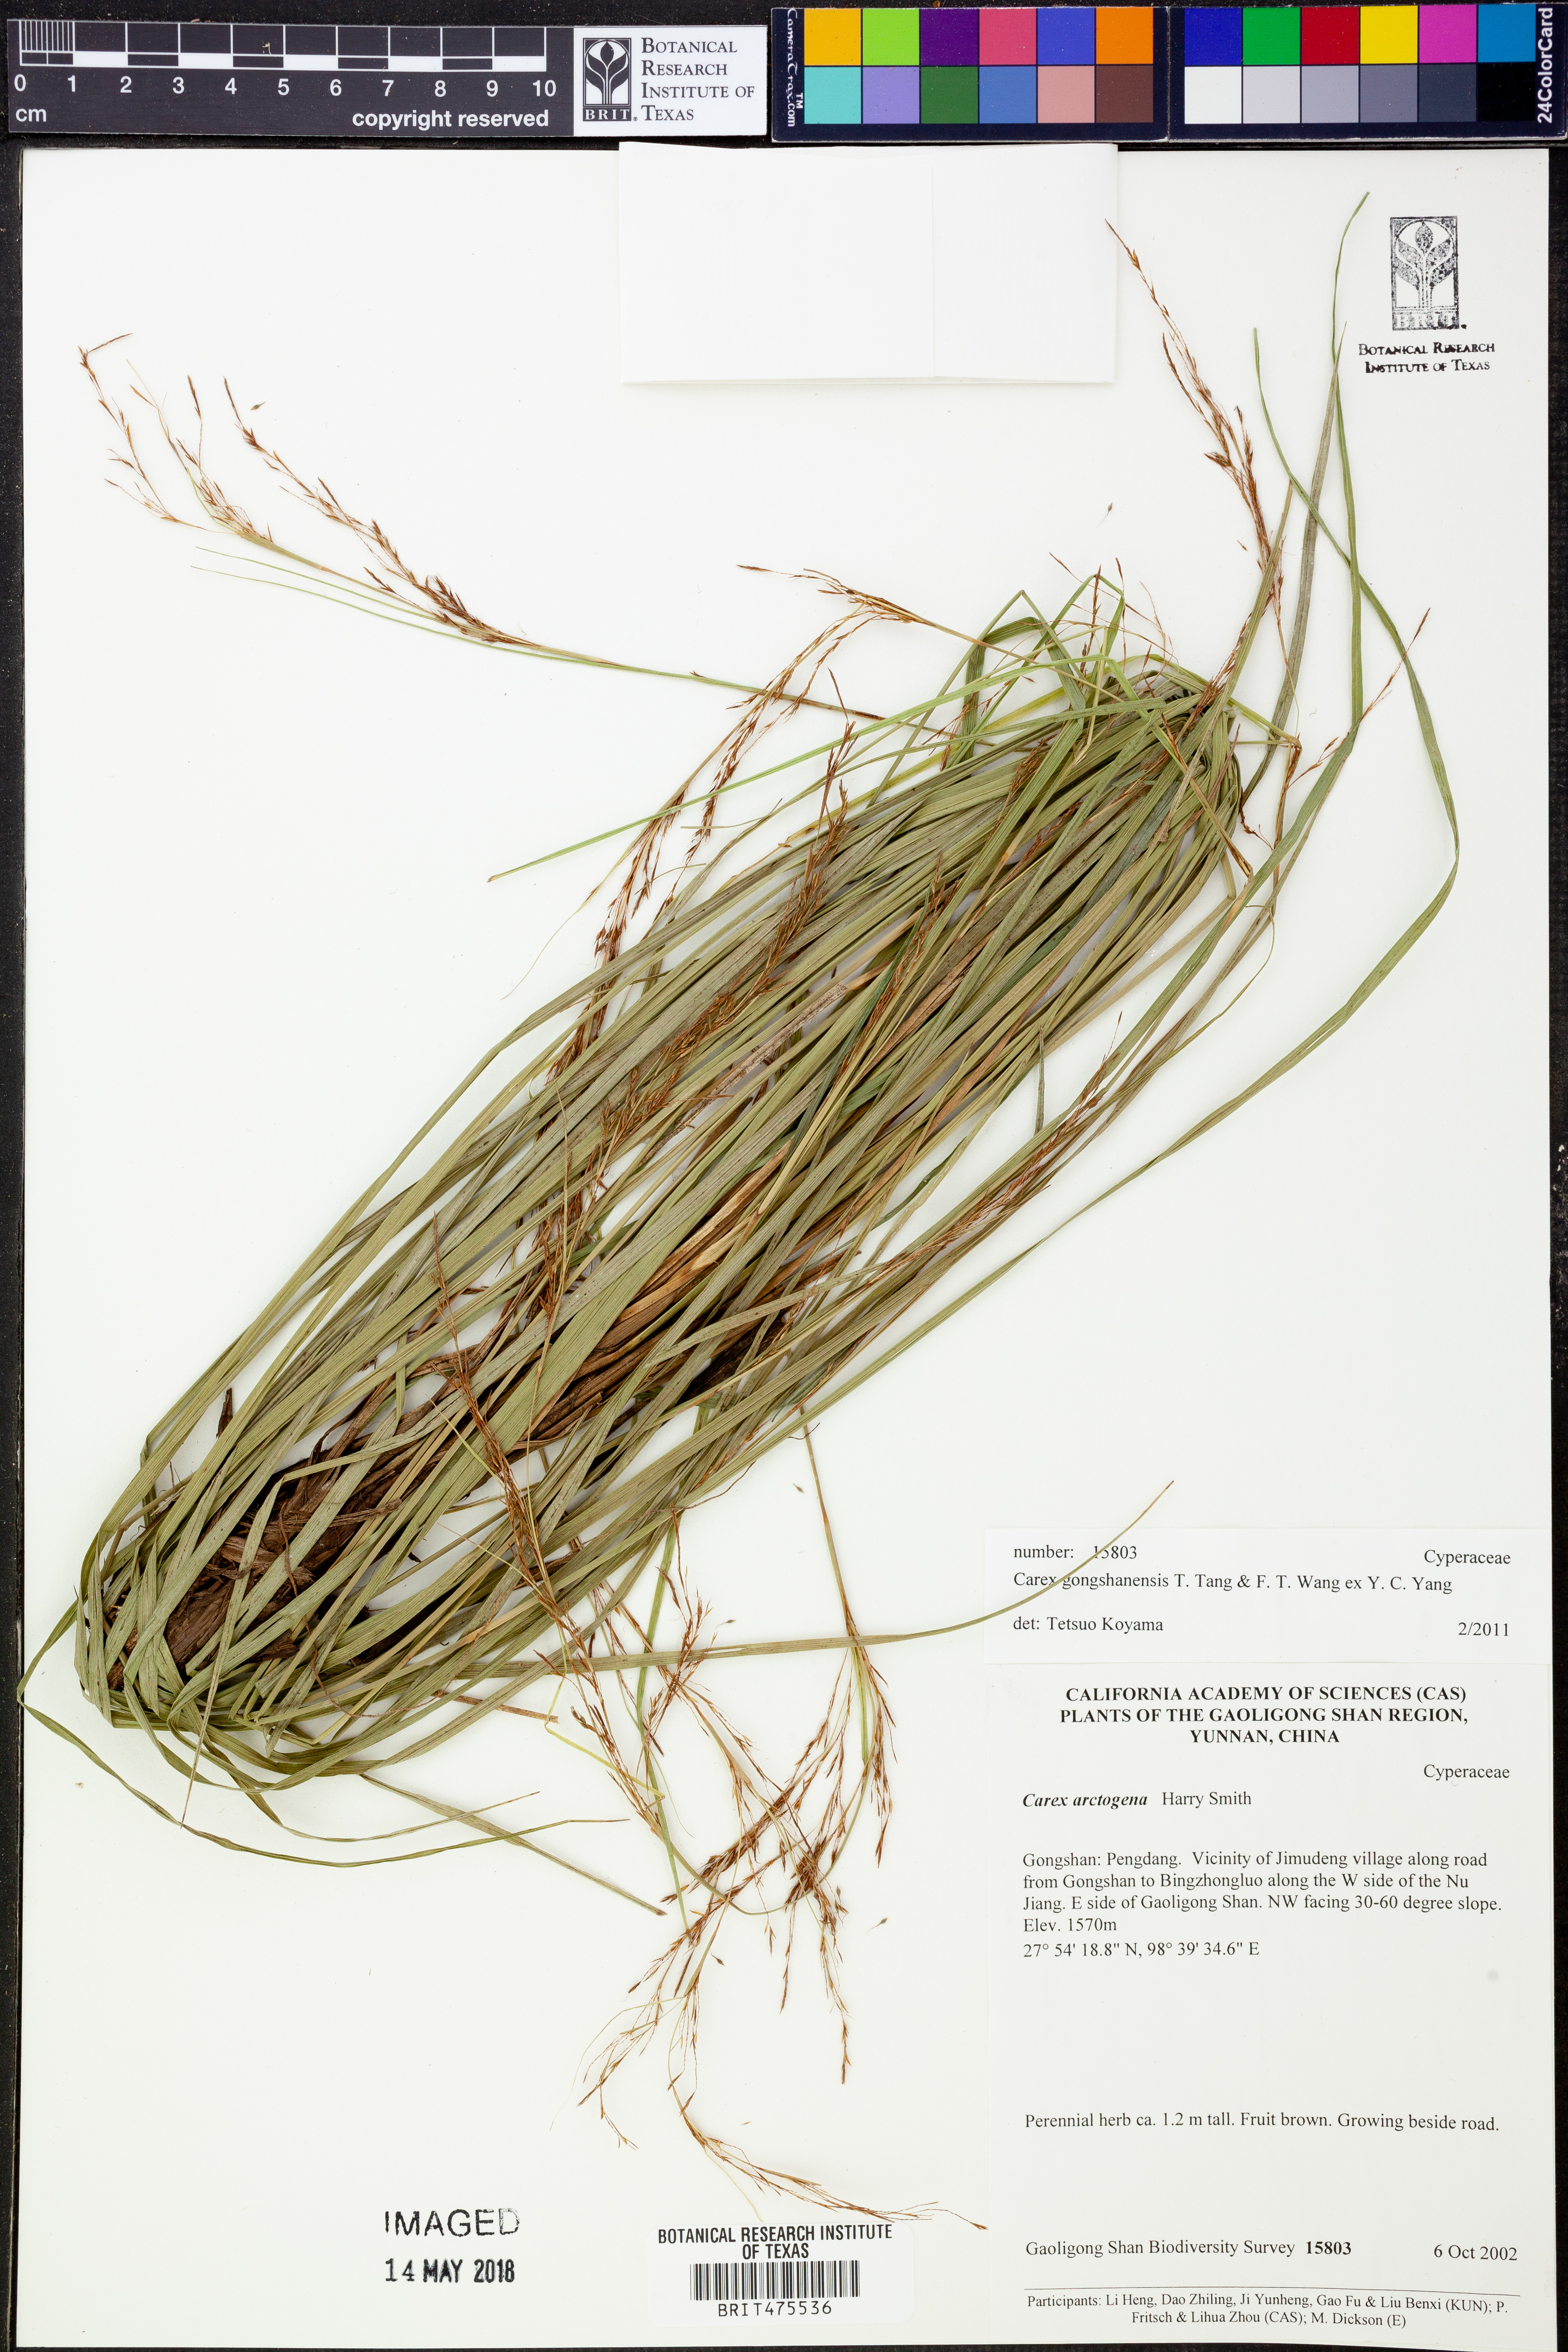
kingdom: Plantae
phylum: Tracheophyta
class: Liliopsida
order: Poales
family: Cyperaceae
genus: Carex
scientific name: Carex gongshanensis
